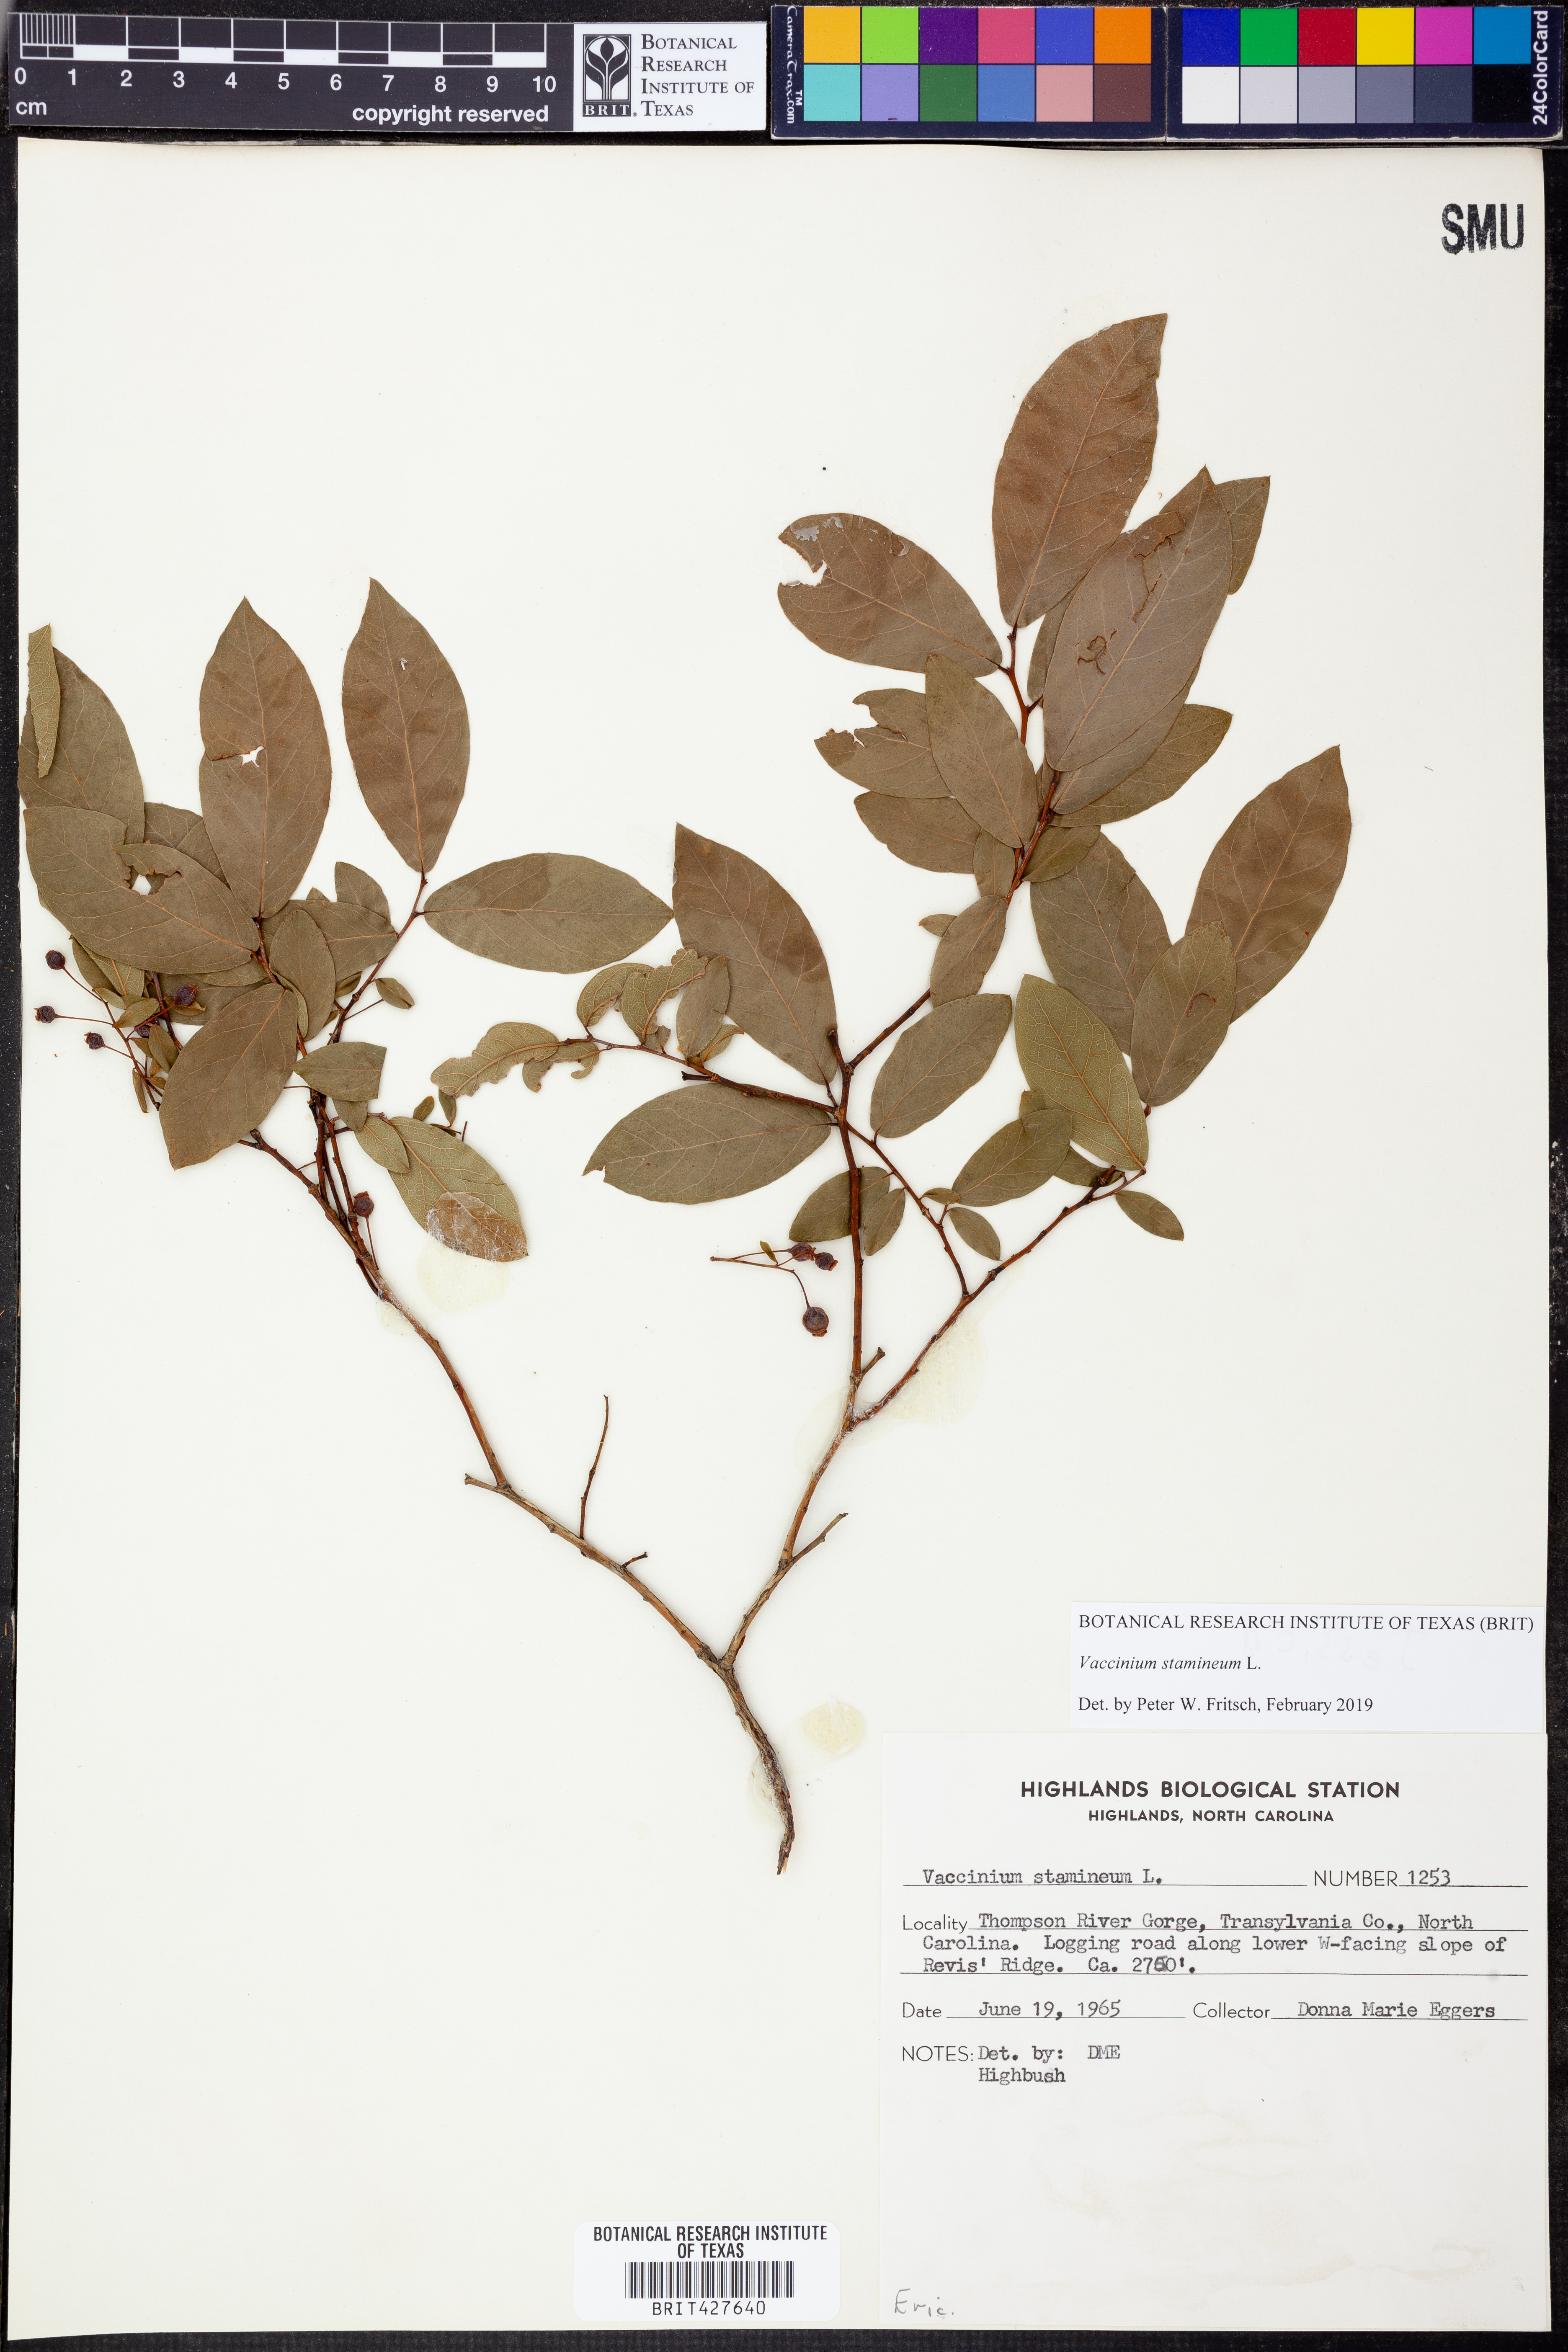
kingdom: Plantae
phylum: Tracheophyta
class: Magnoliopsida
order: Ericales
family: Ericaceae
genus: Vaccinium
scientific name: Vaccinium stamineum
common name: Deerberry
